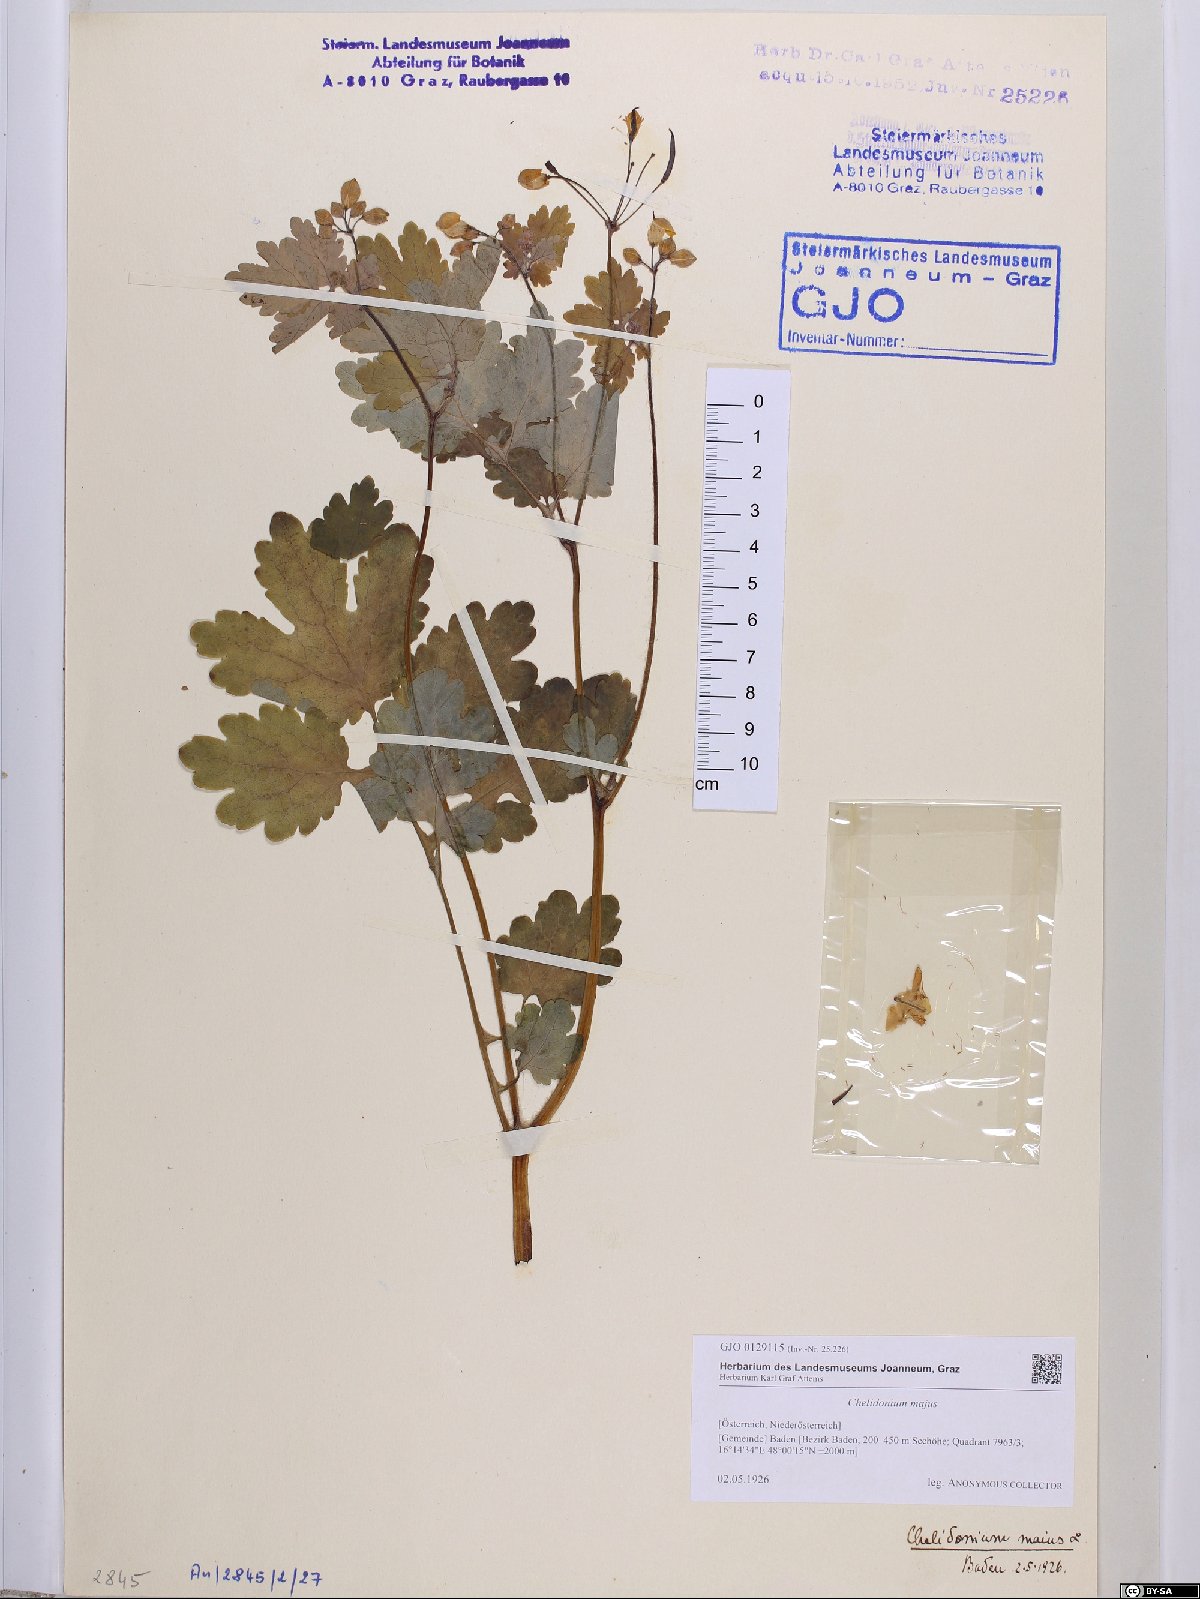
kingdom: Plantae
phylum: Tracheophyta
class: Magnoliopsida
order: Ranunculales
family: Papaveraceae
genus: Chelidonium
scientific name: Chelidonium majus
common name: Greater celandine
